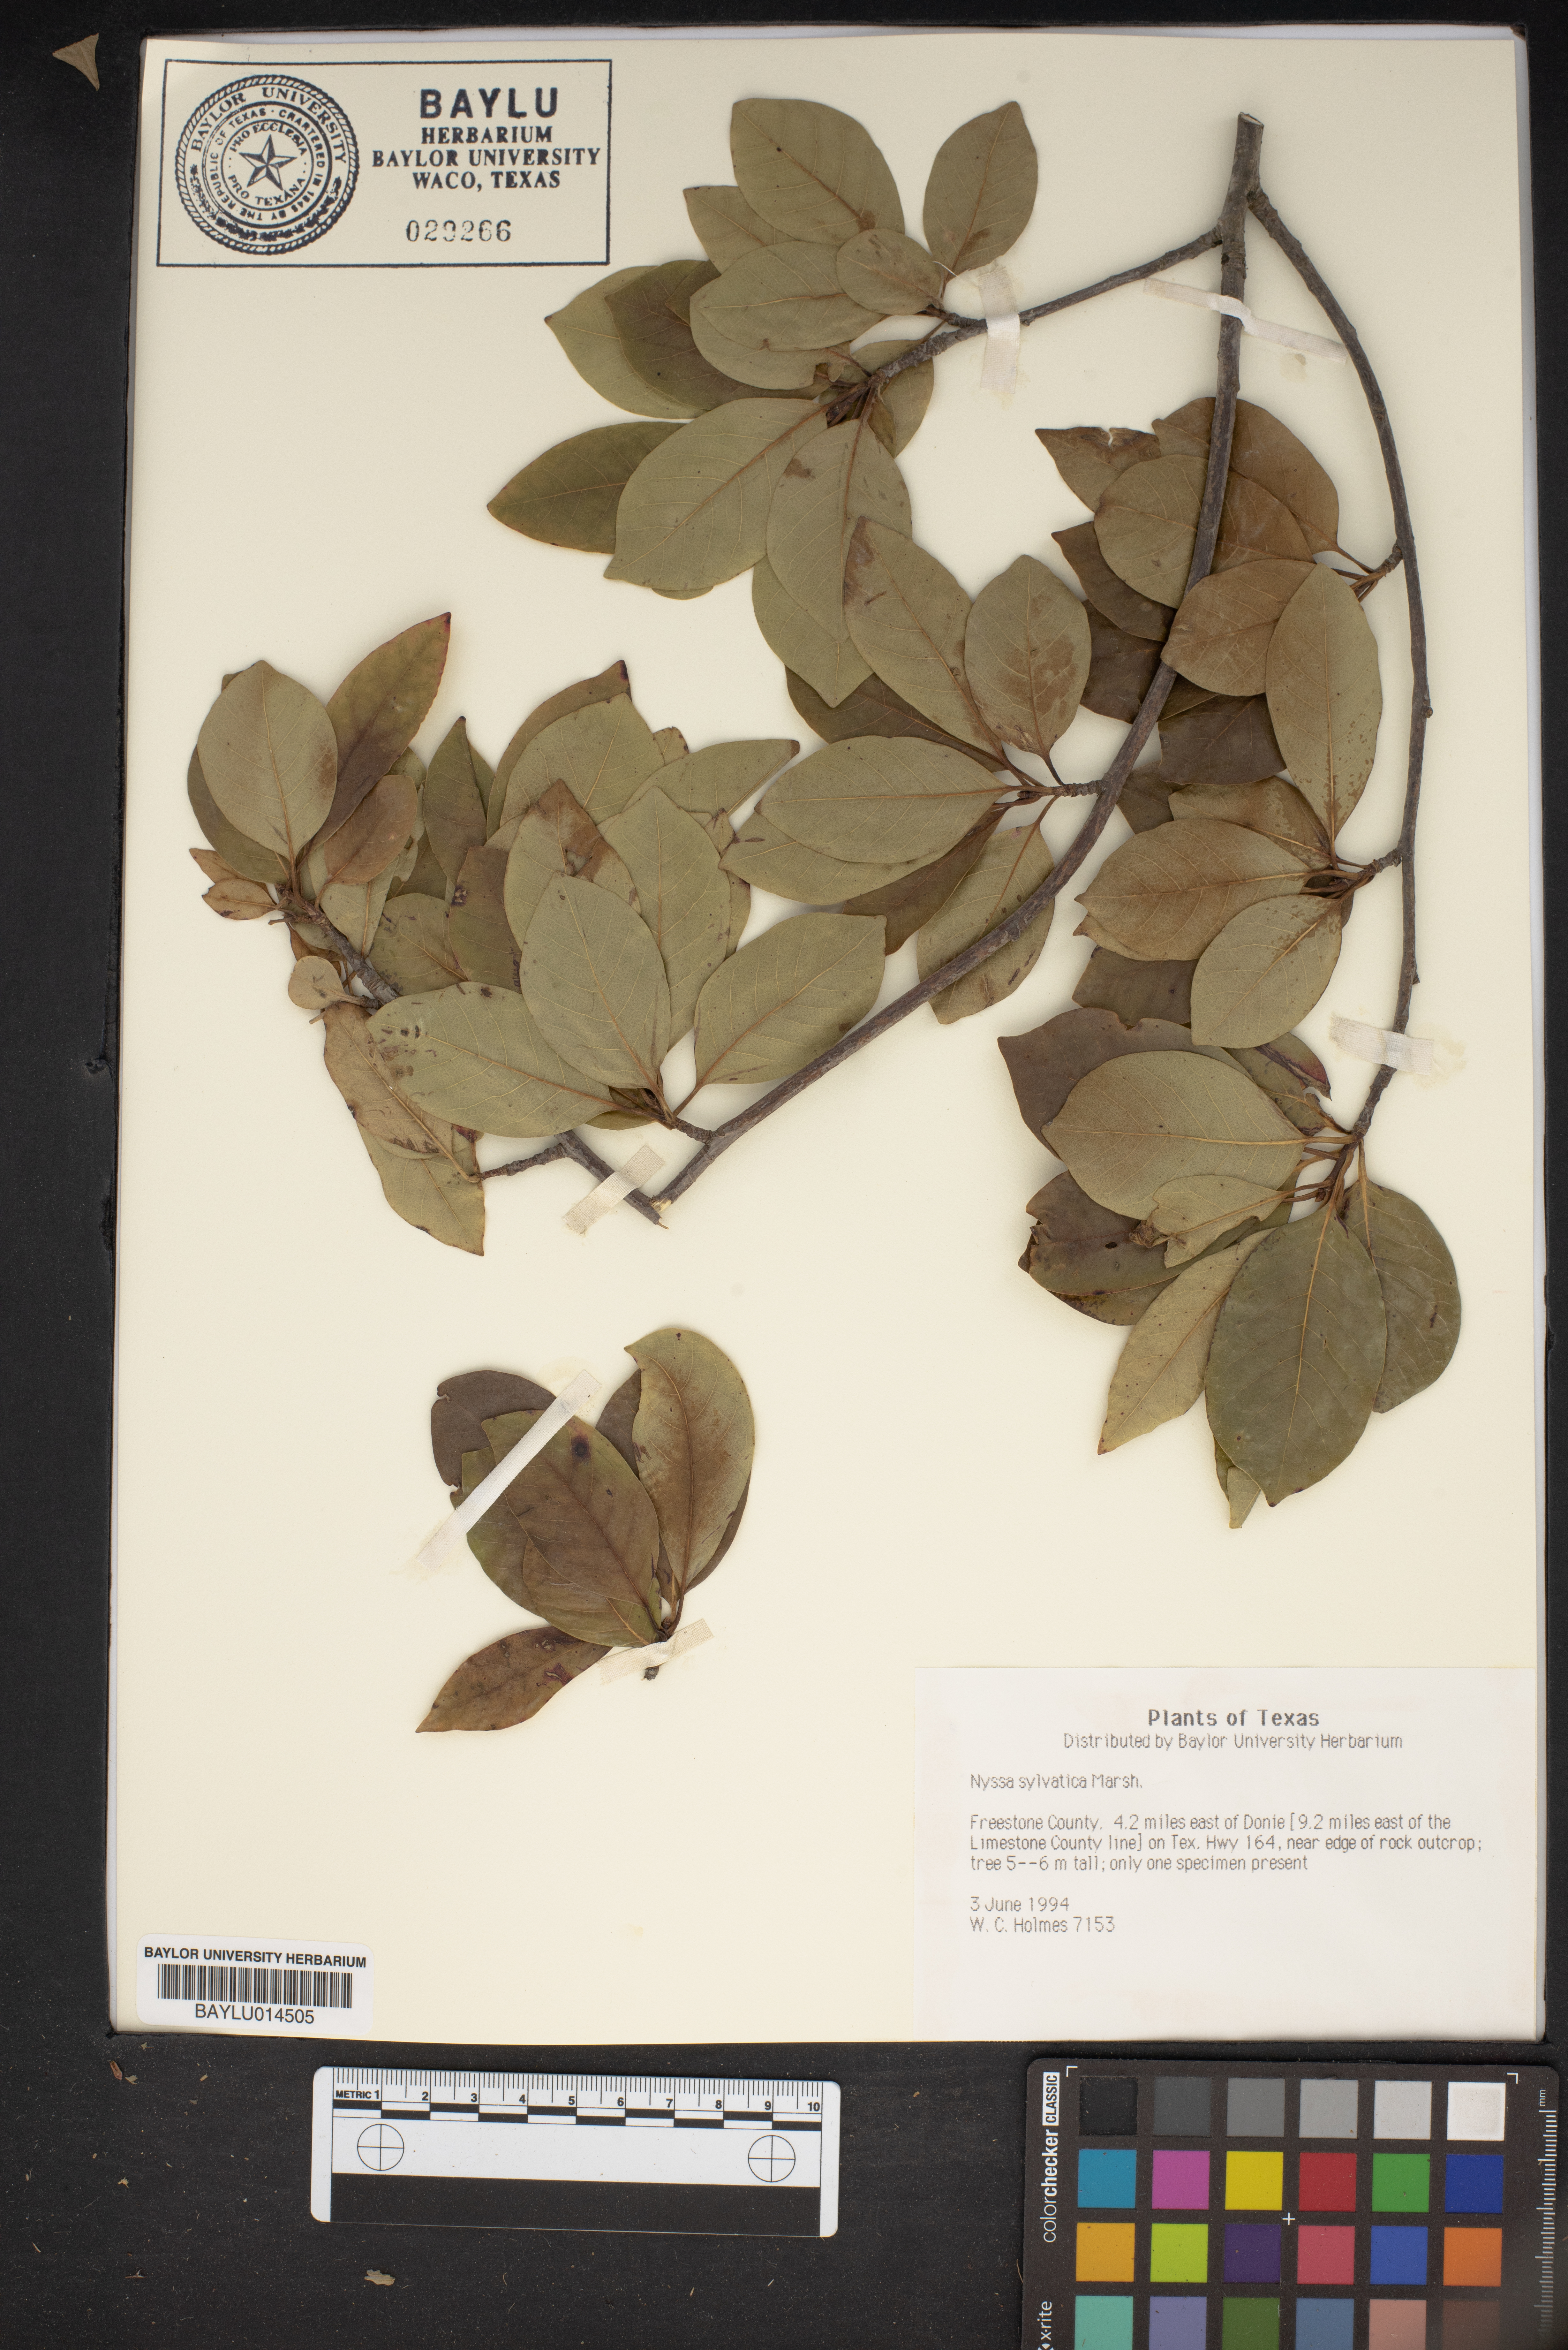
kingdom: Plantae
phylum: Tracheophyta
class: Magnoliopsida
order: Cornales
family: Nyssaceae
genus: Nyssa
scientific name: Nyssa sylvatica
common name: Black tupelo
